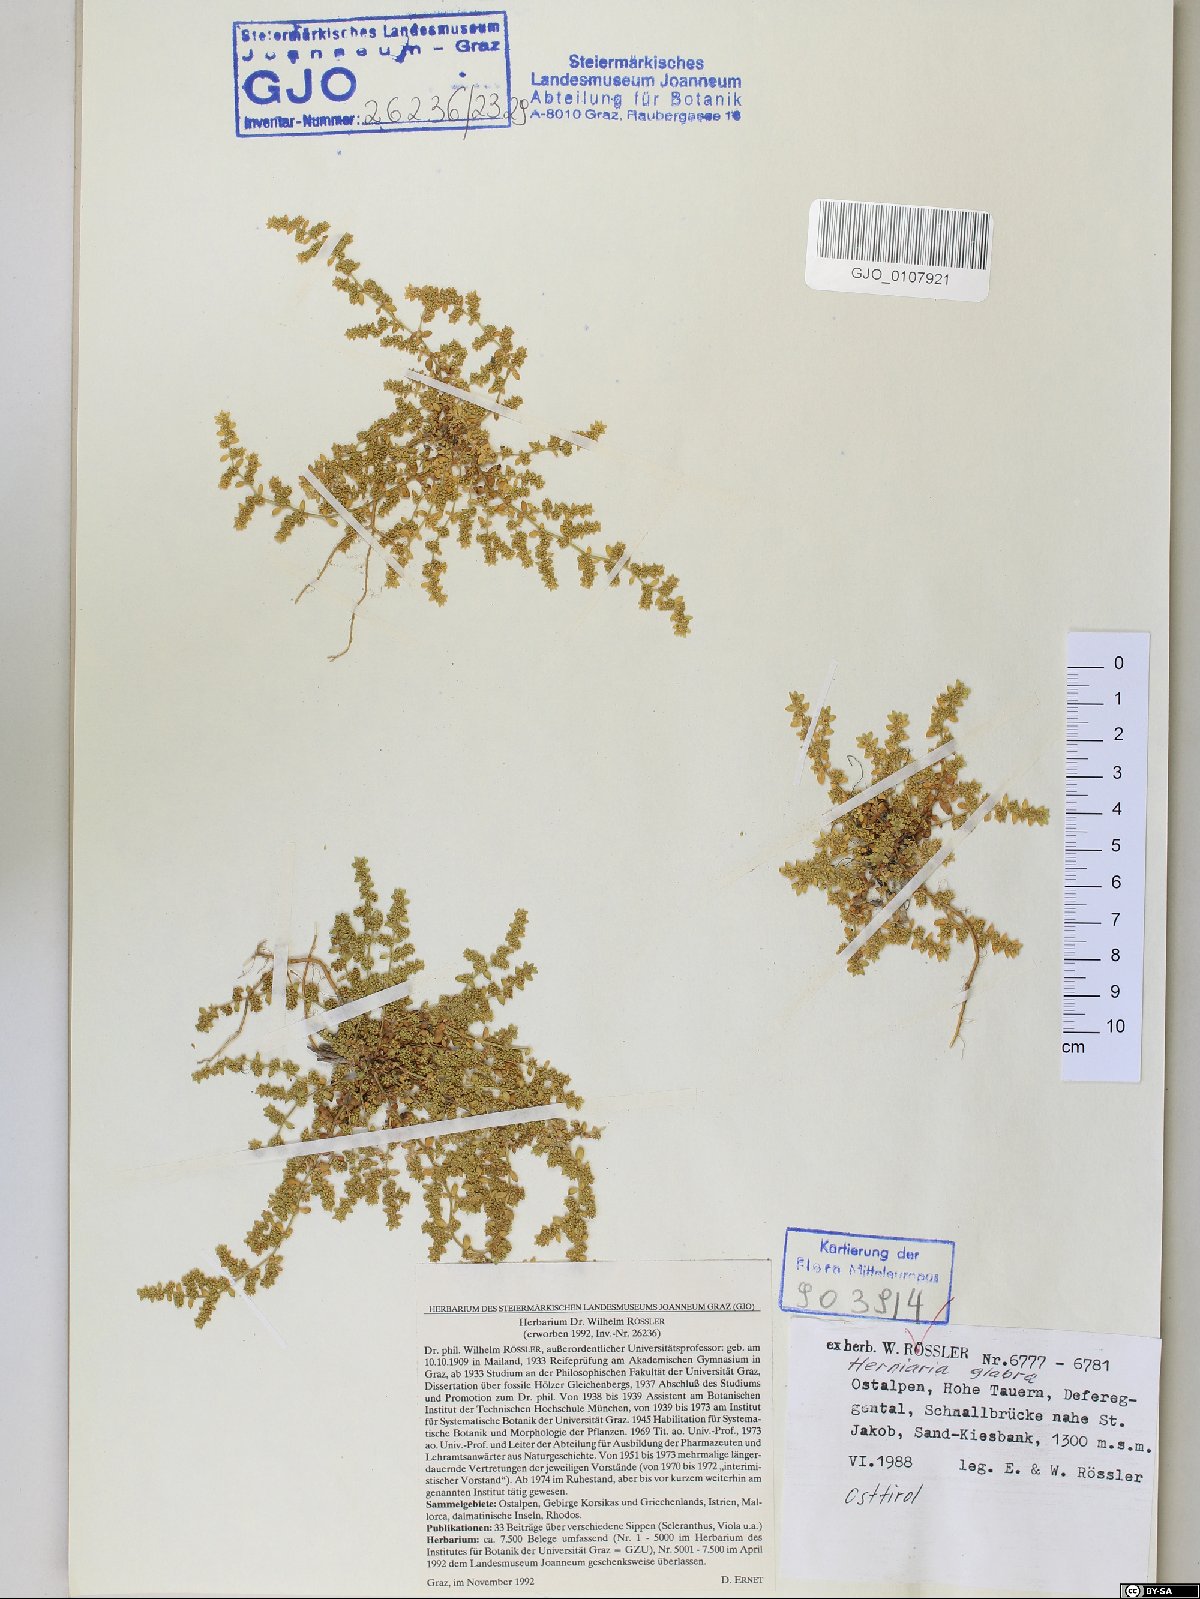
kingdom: Plantae
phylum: Tracheophyta
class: Magnoliopsida
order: Caryophyllales
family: Caryophyllaceae
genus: Herniaria
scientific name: Herniaria glabra
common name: Smooth rupturewort
